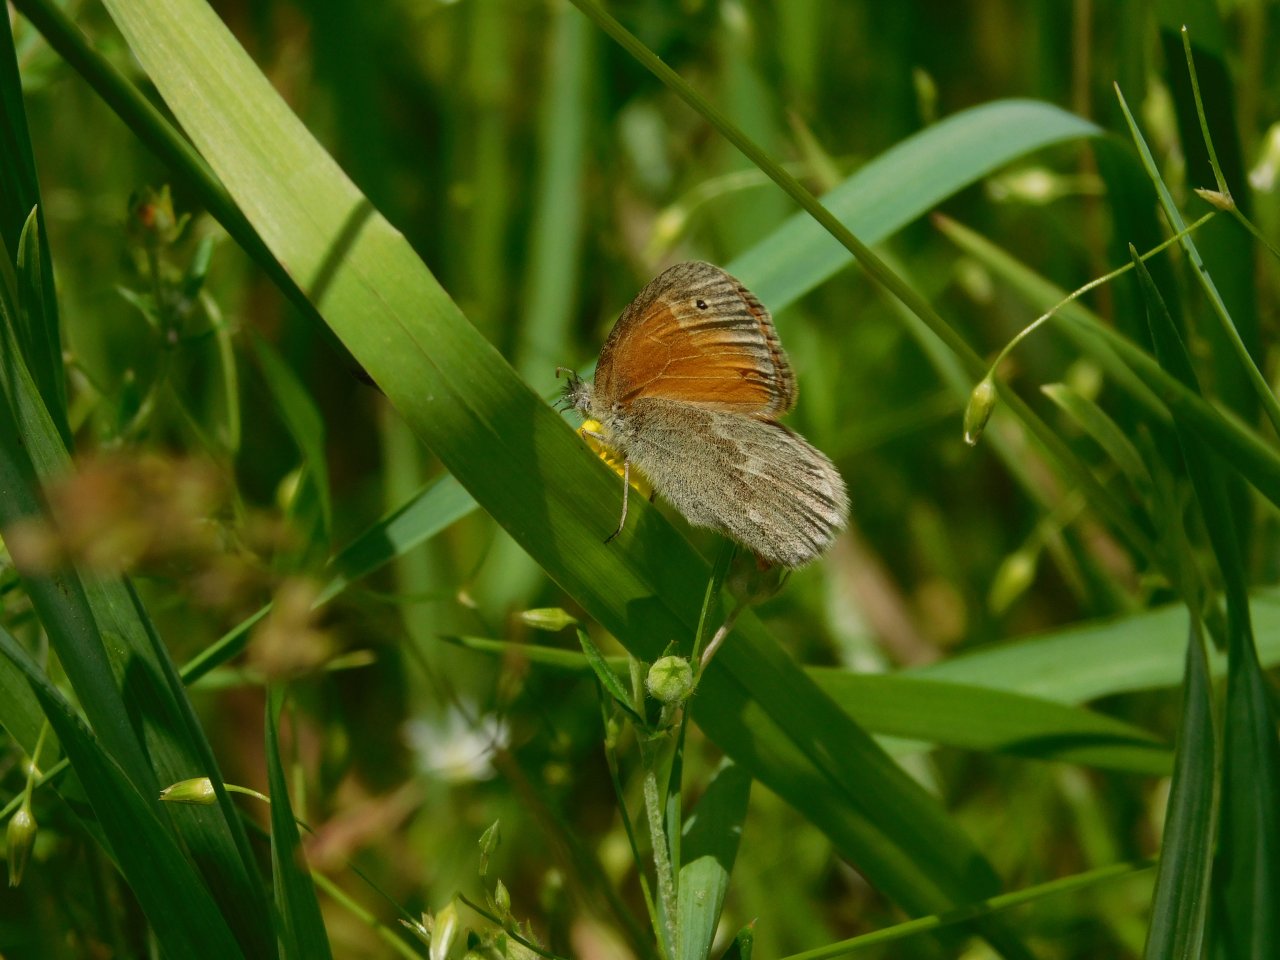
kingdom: Animalia
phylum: Arthropoda
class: Insecta
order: Lepidoptera
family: Nymphalidae
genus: Coenonympha
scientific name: Coenonympha tullia
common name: Large Heath
